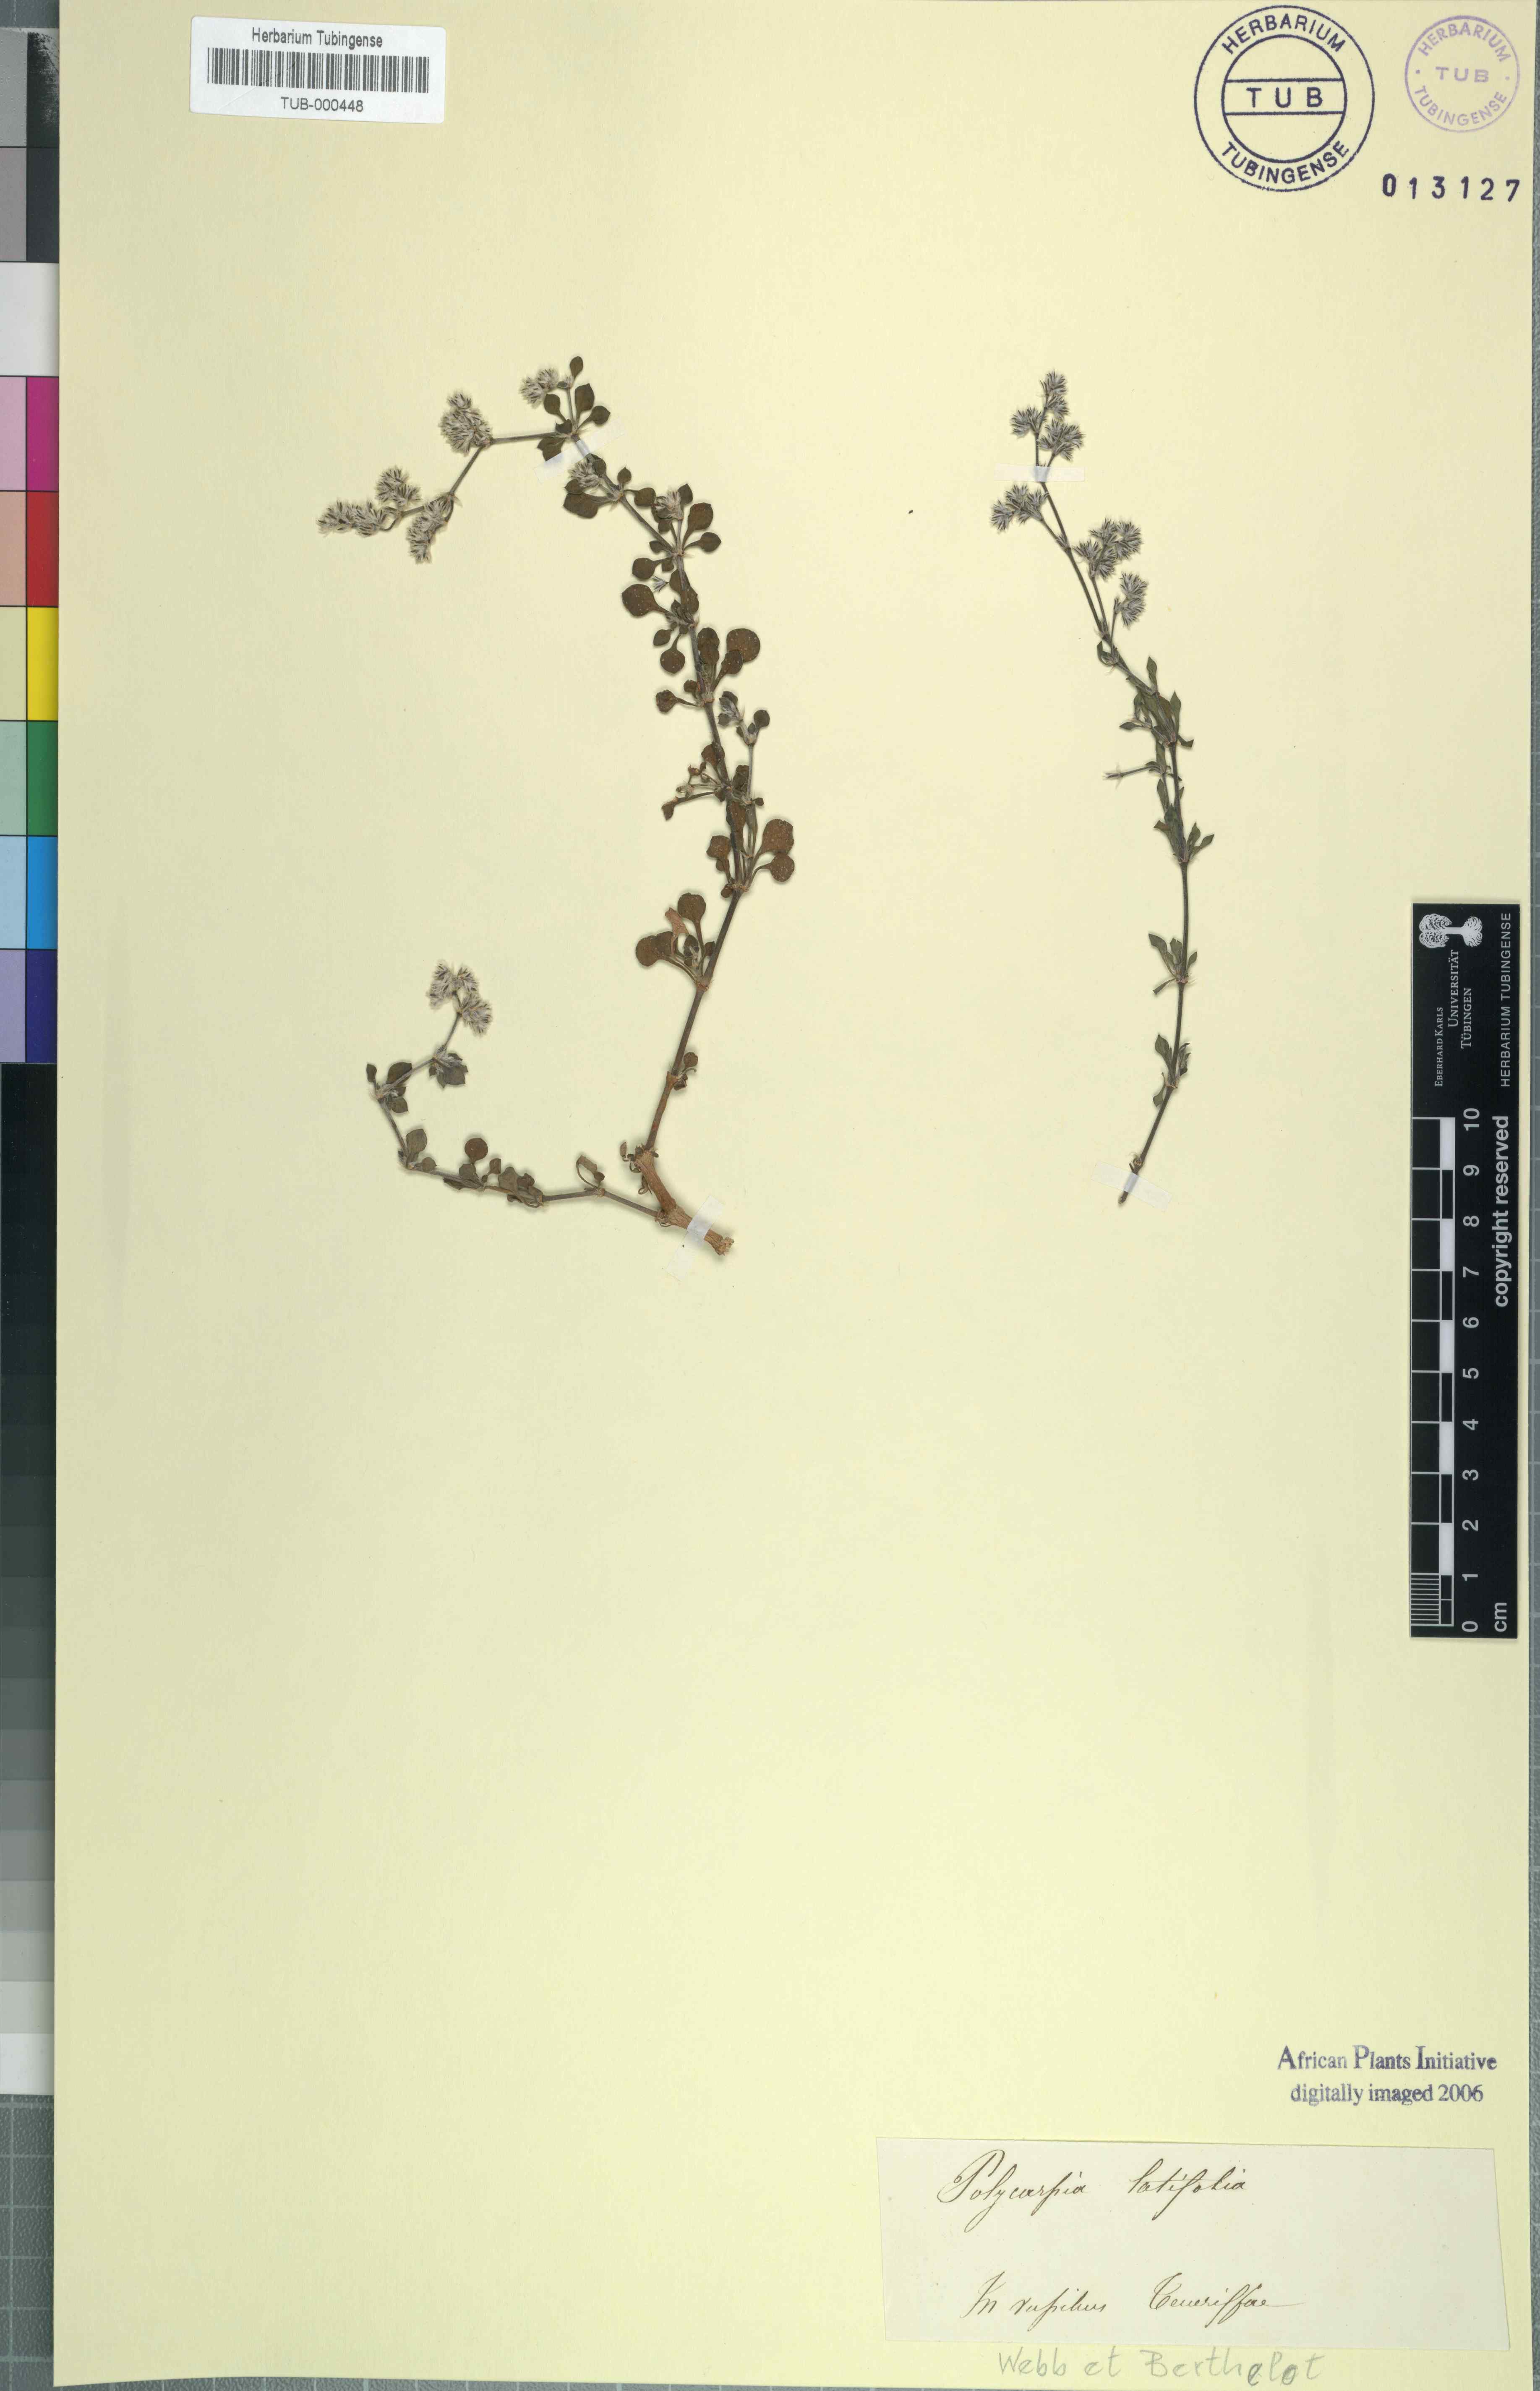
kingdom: Plantae
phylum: Tracheophyta
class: Magnoliopsida
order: Caryophyllales
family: Caryophyllaceae
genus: Polycarpaea
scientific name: Polycarpaea corymbosa
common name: Oldman's cap
